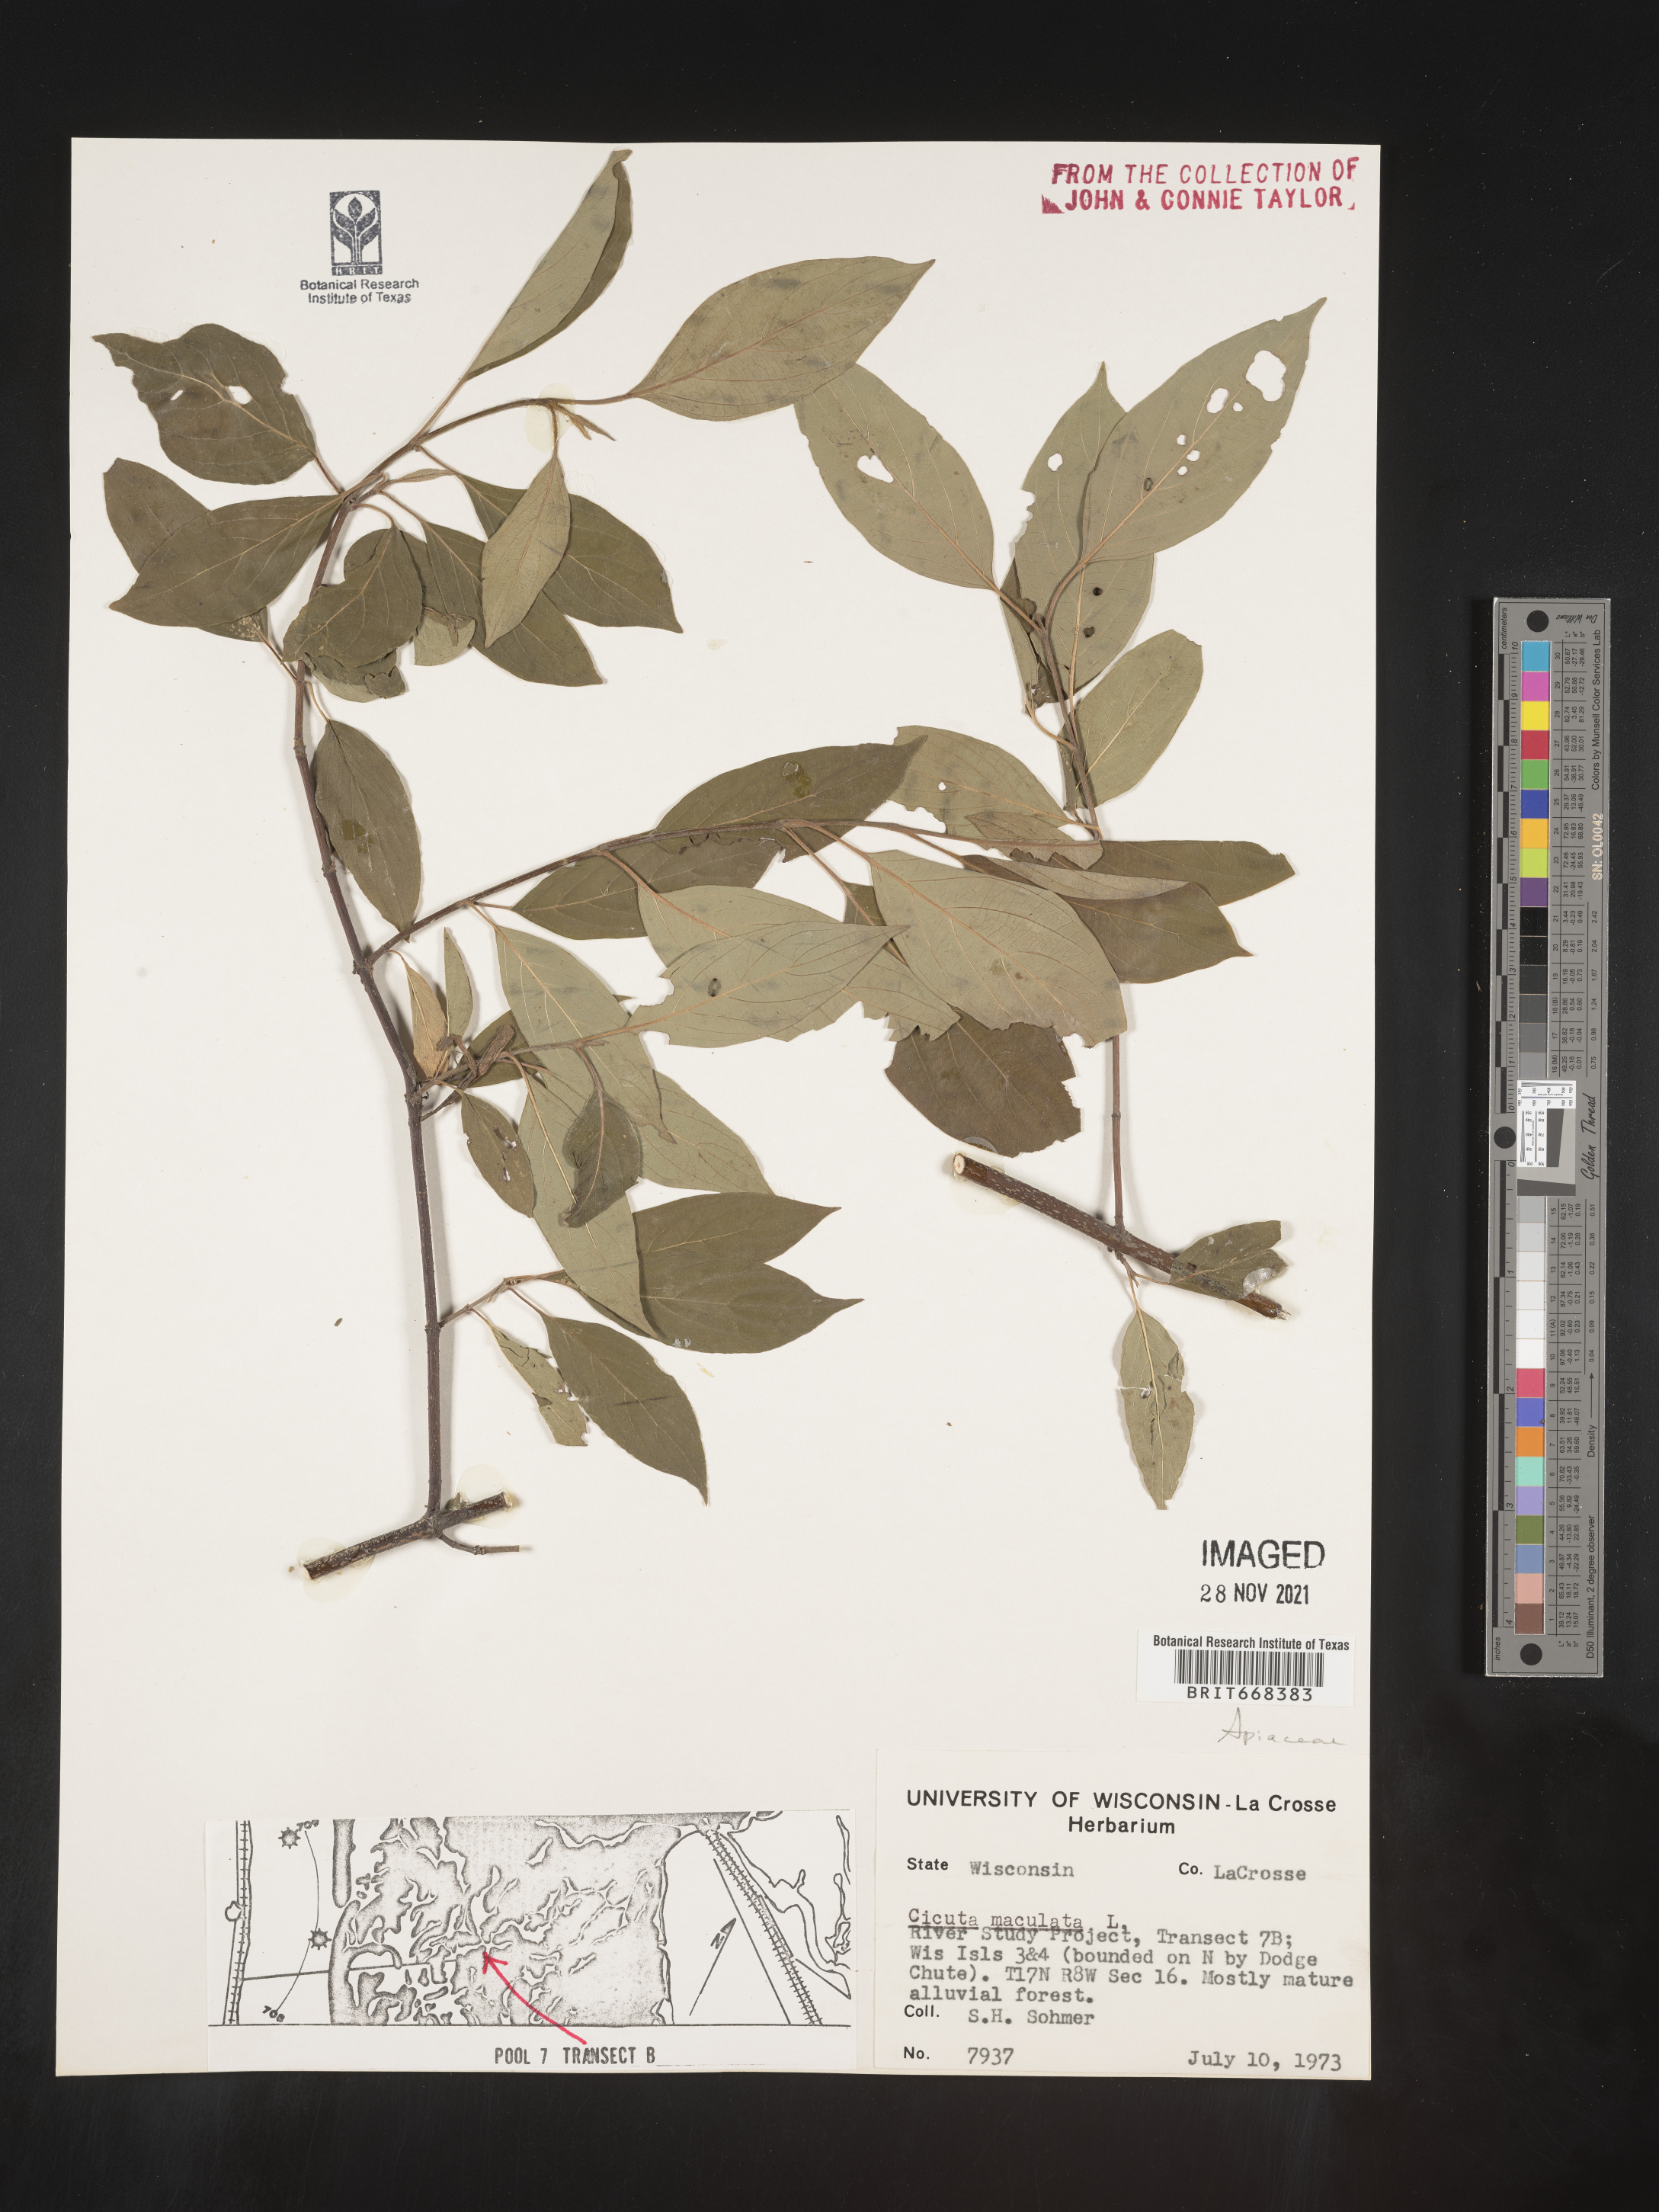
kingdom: Plantae
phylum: Tracheophyta
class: Magnoliopsida
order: Apiales
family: Apiaceae
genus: Cicuta
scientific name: Cicuta maculata
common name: Spotted cowbane
